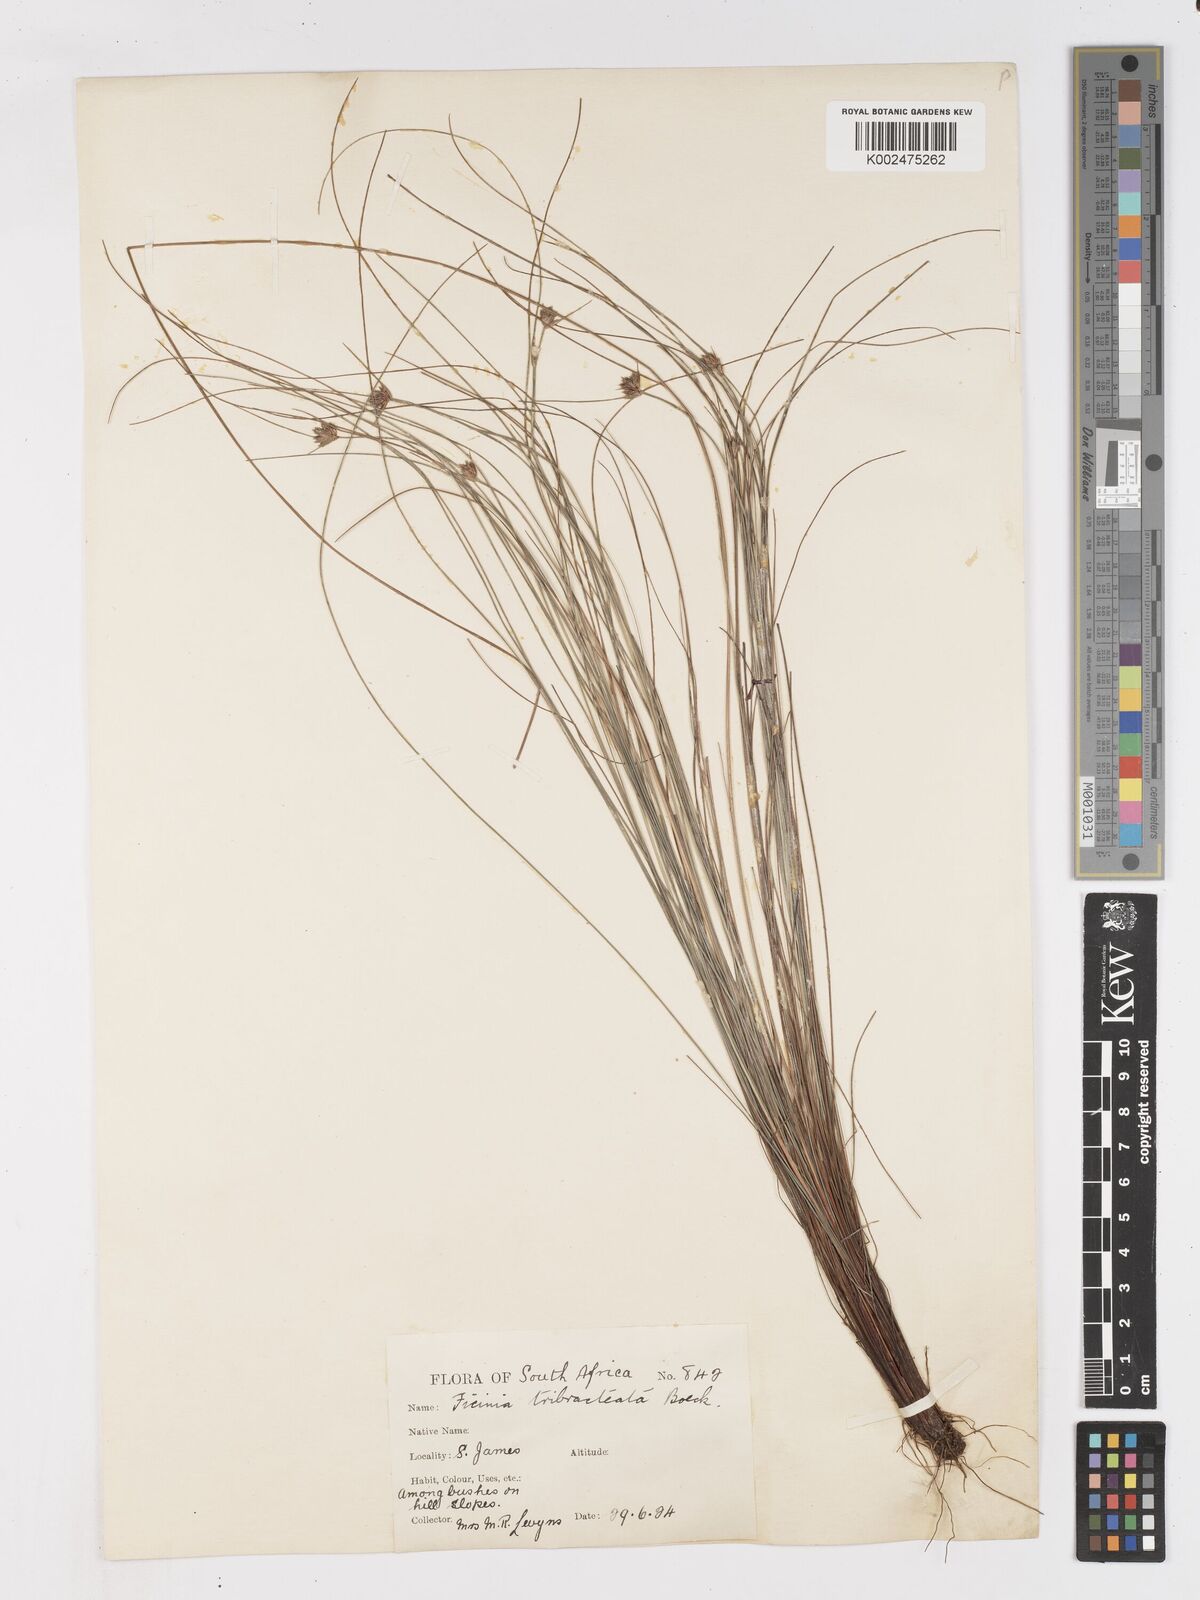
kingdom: Plantae
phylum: Tracheophyta
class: Liliopsida
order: Poales
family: Cyperaceae
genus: Ficinia
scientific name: Ficinia tristachya
